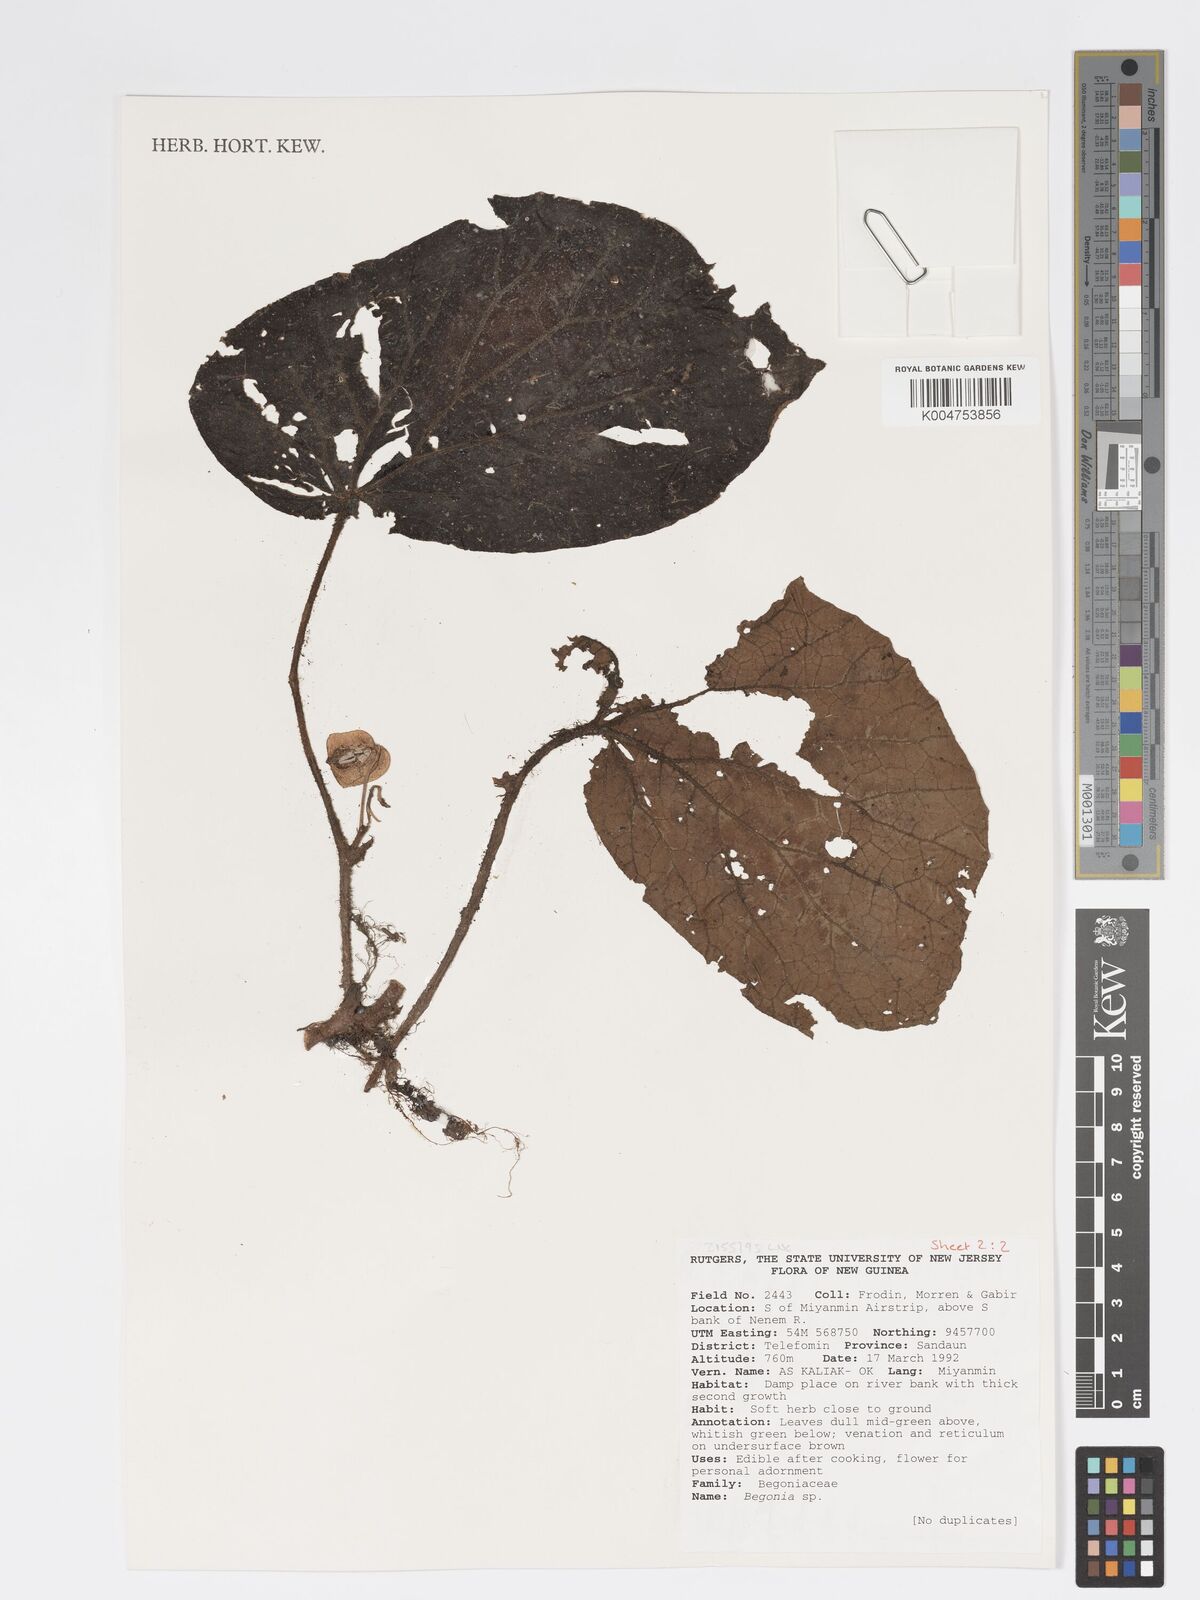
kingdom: Plantae
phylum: Tracheophyta
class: Magnoliopsida
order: Cucurbitales
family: Begoniaceae
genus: Begonia
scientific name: Begonia
